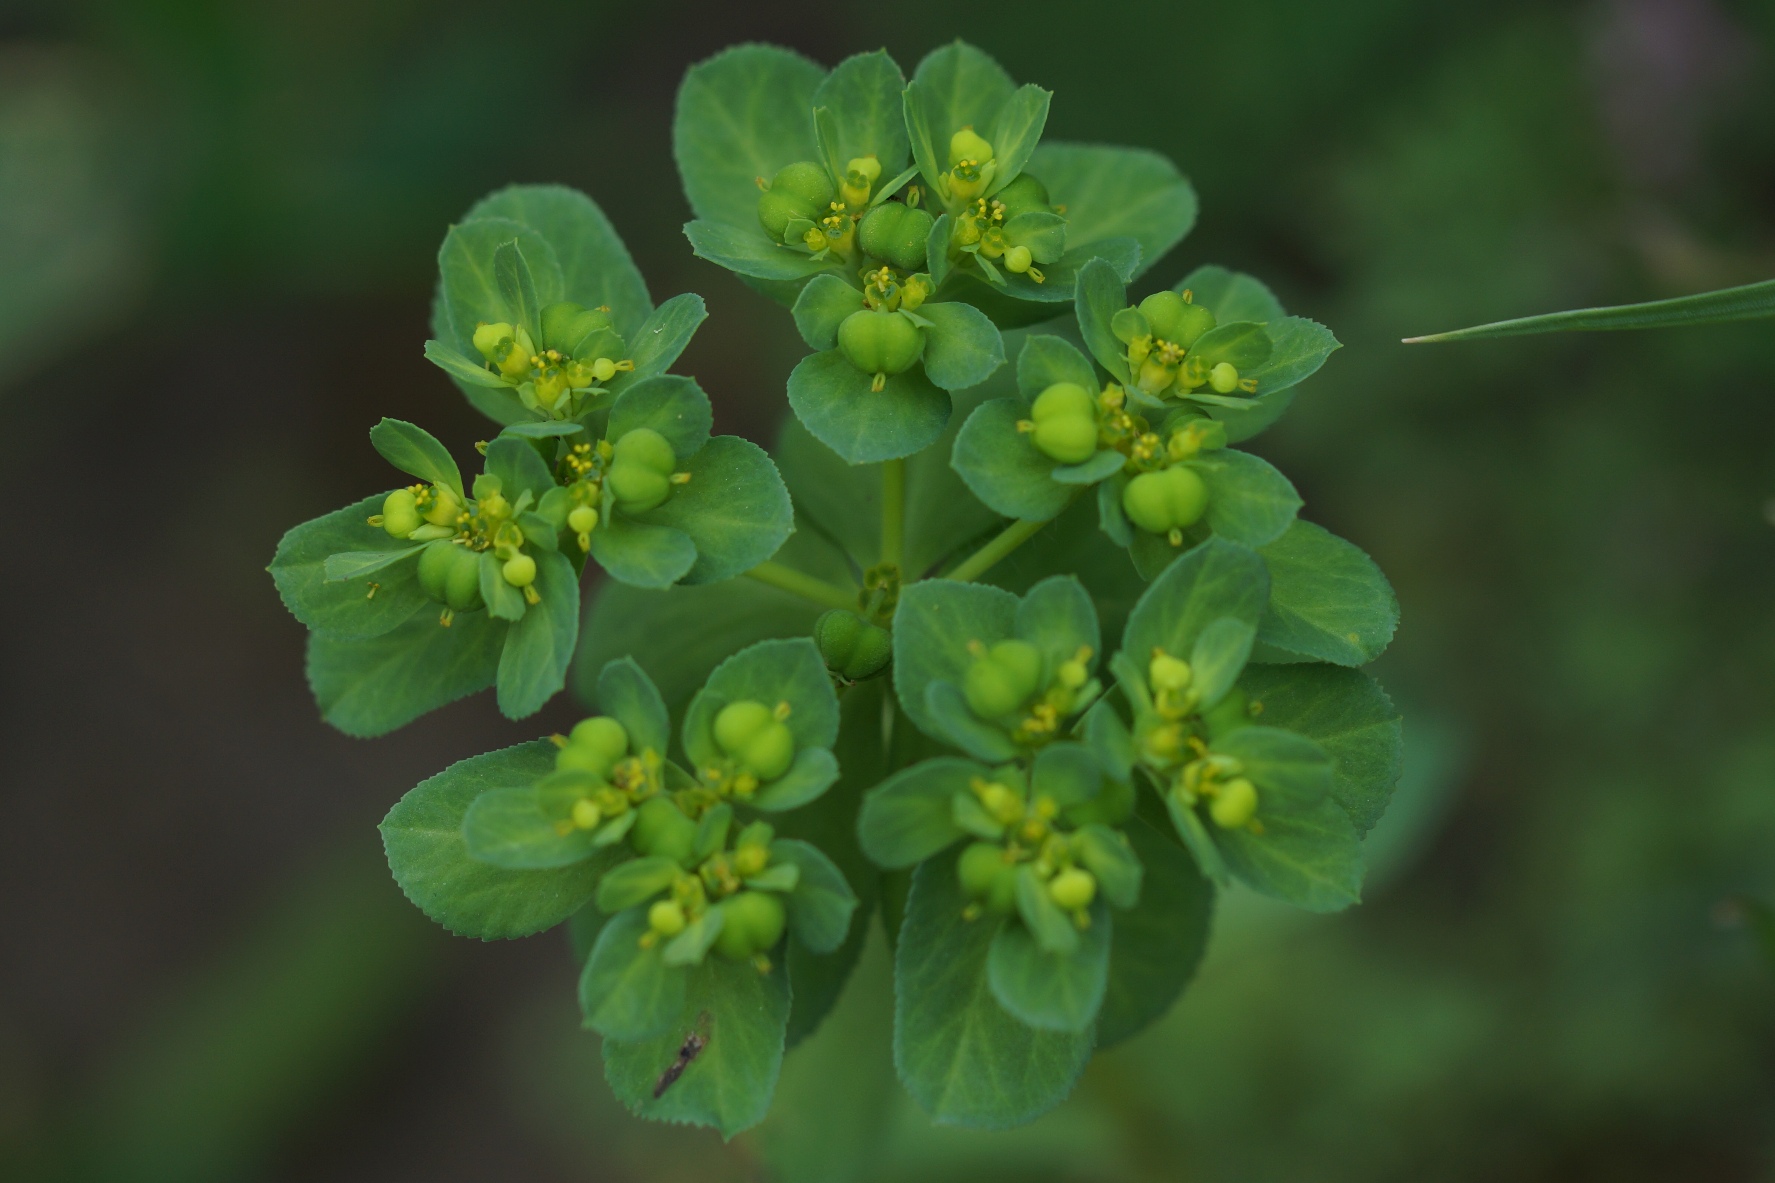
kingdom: Plantae
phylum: Tracheophyta
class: Magnoliopsida
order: Malpighiales
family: Euphorbiaceae
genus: Euphorbia
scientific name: Euphorbia helioscopia
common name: Skærm-vortemælk
